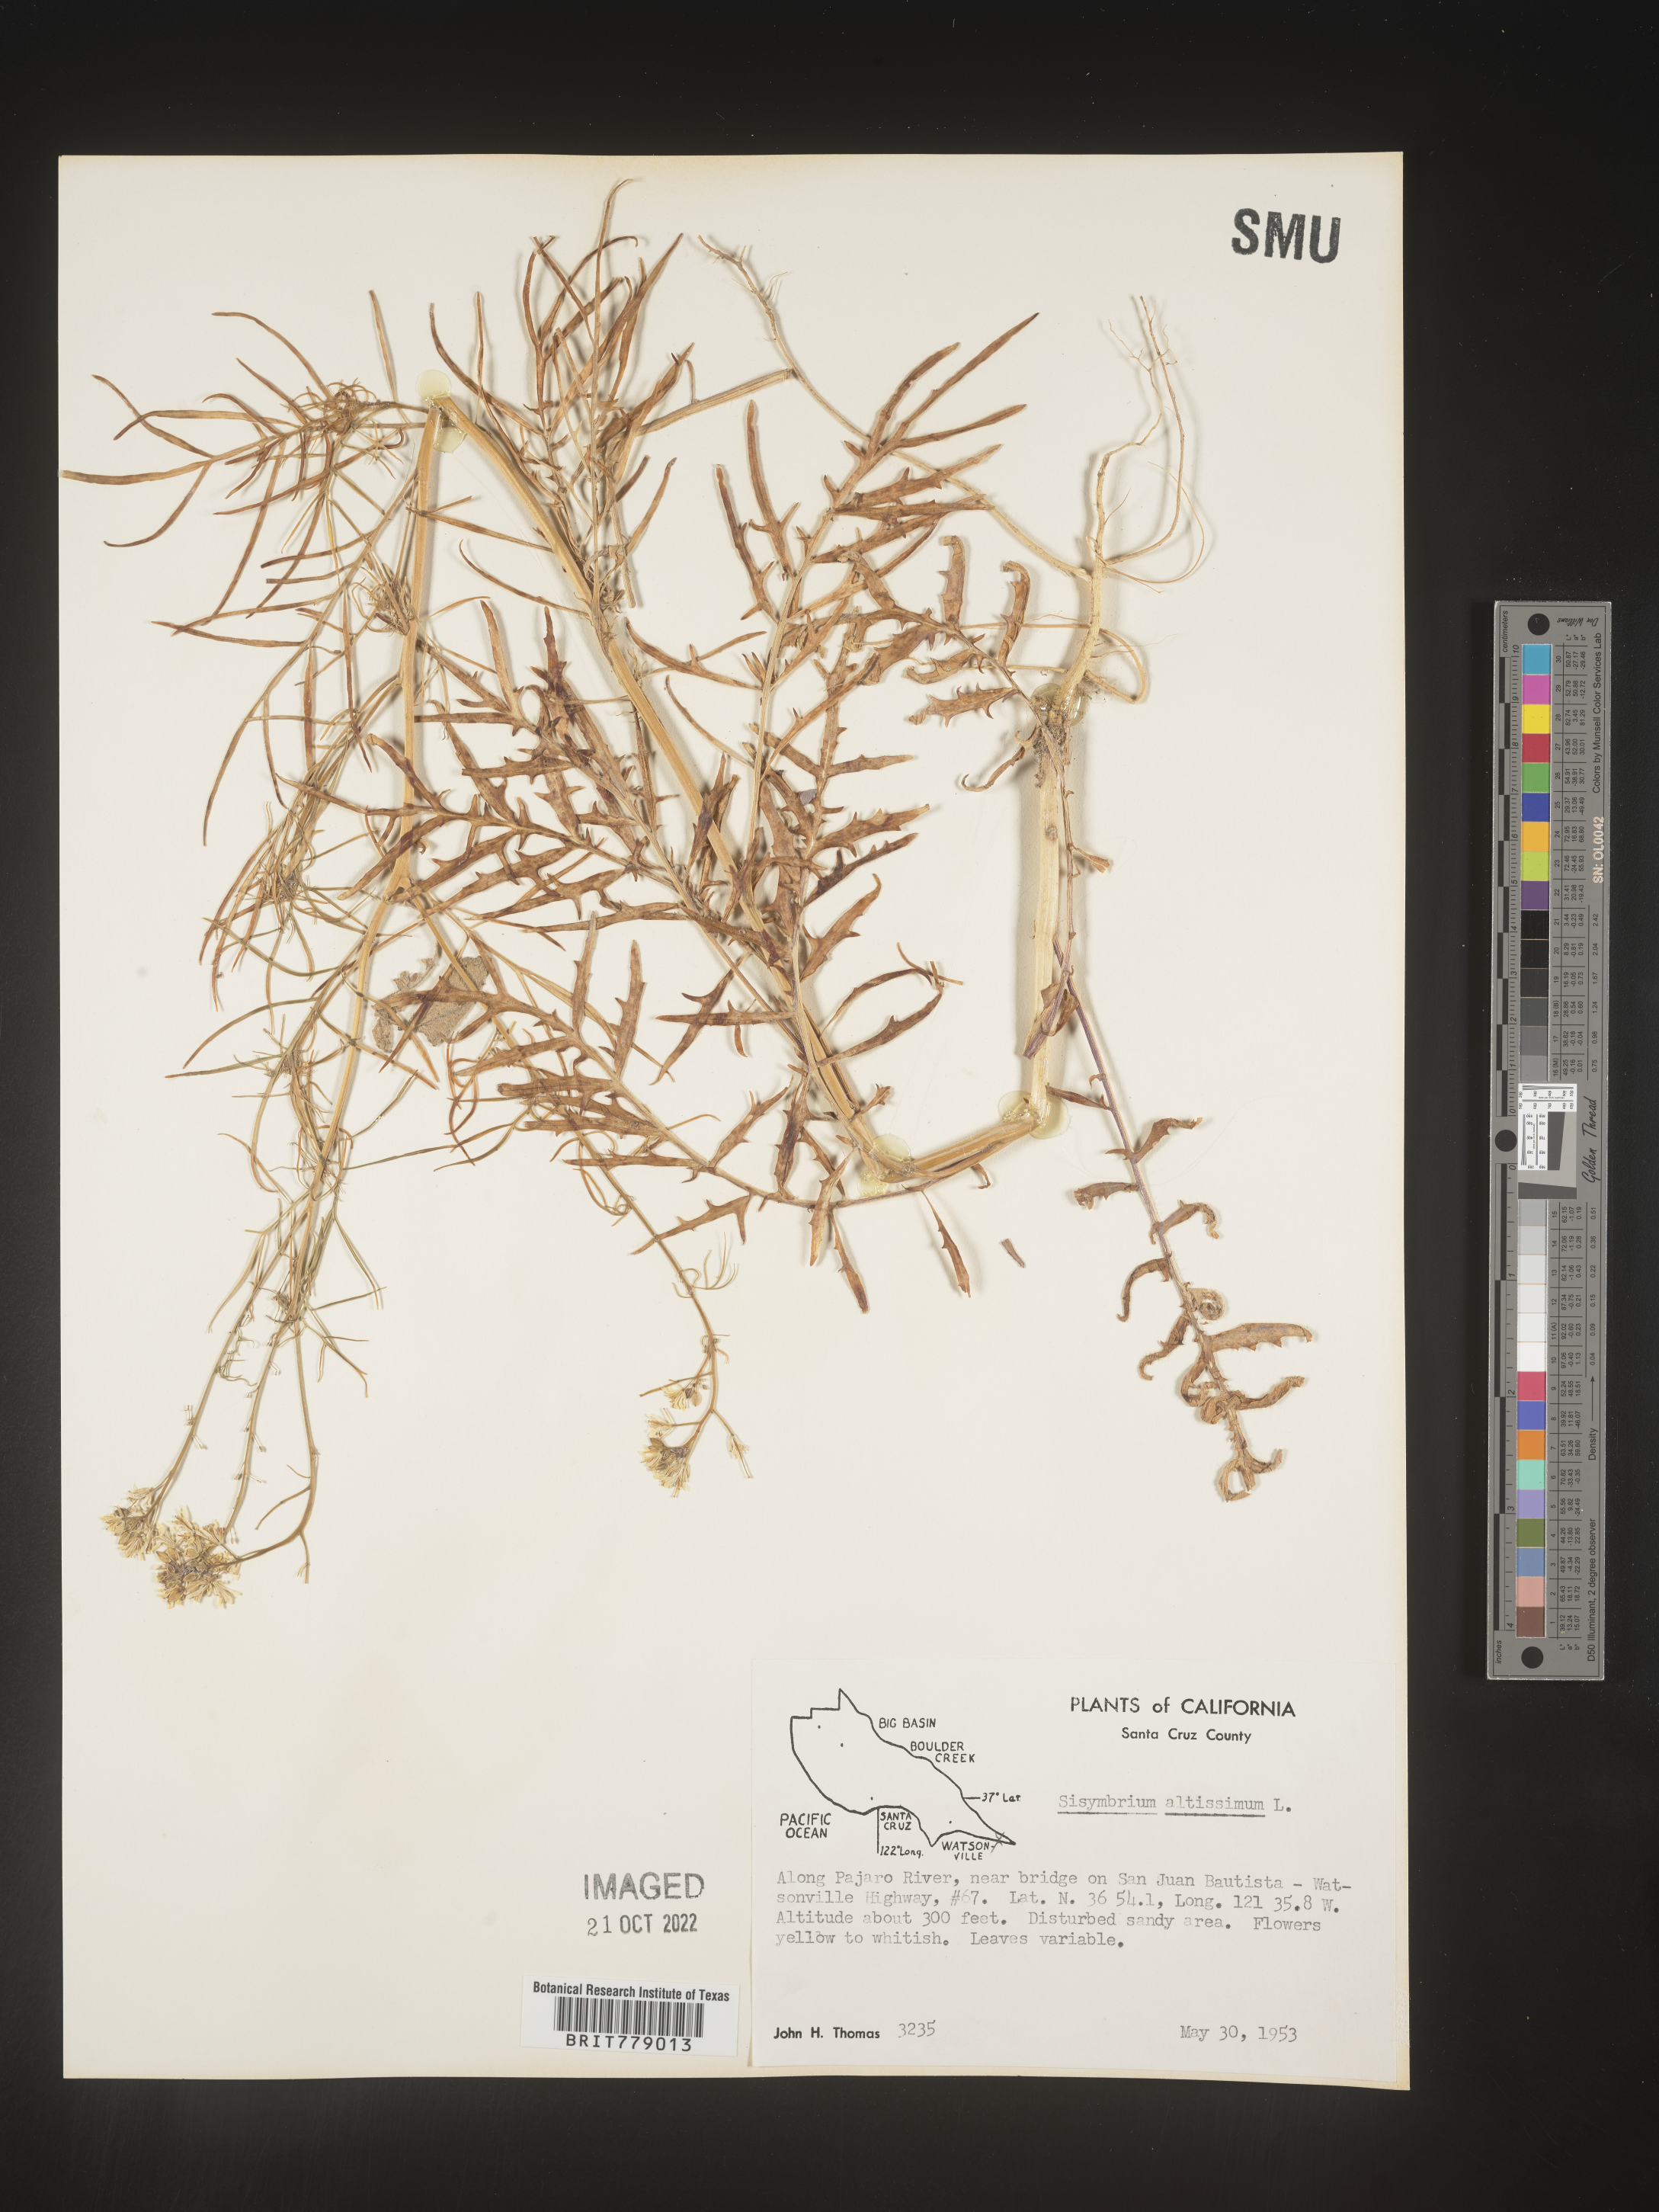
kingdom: Plantae
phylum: Tracheophyta
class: Magnoliopsida
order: Brassicales
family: Brassicaceae
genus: Sisymbrium
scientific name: Sisymbrium altissimum
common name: Tall rocket
